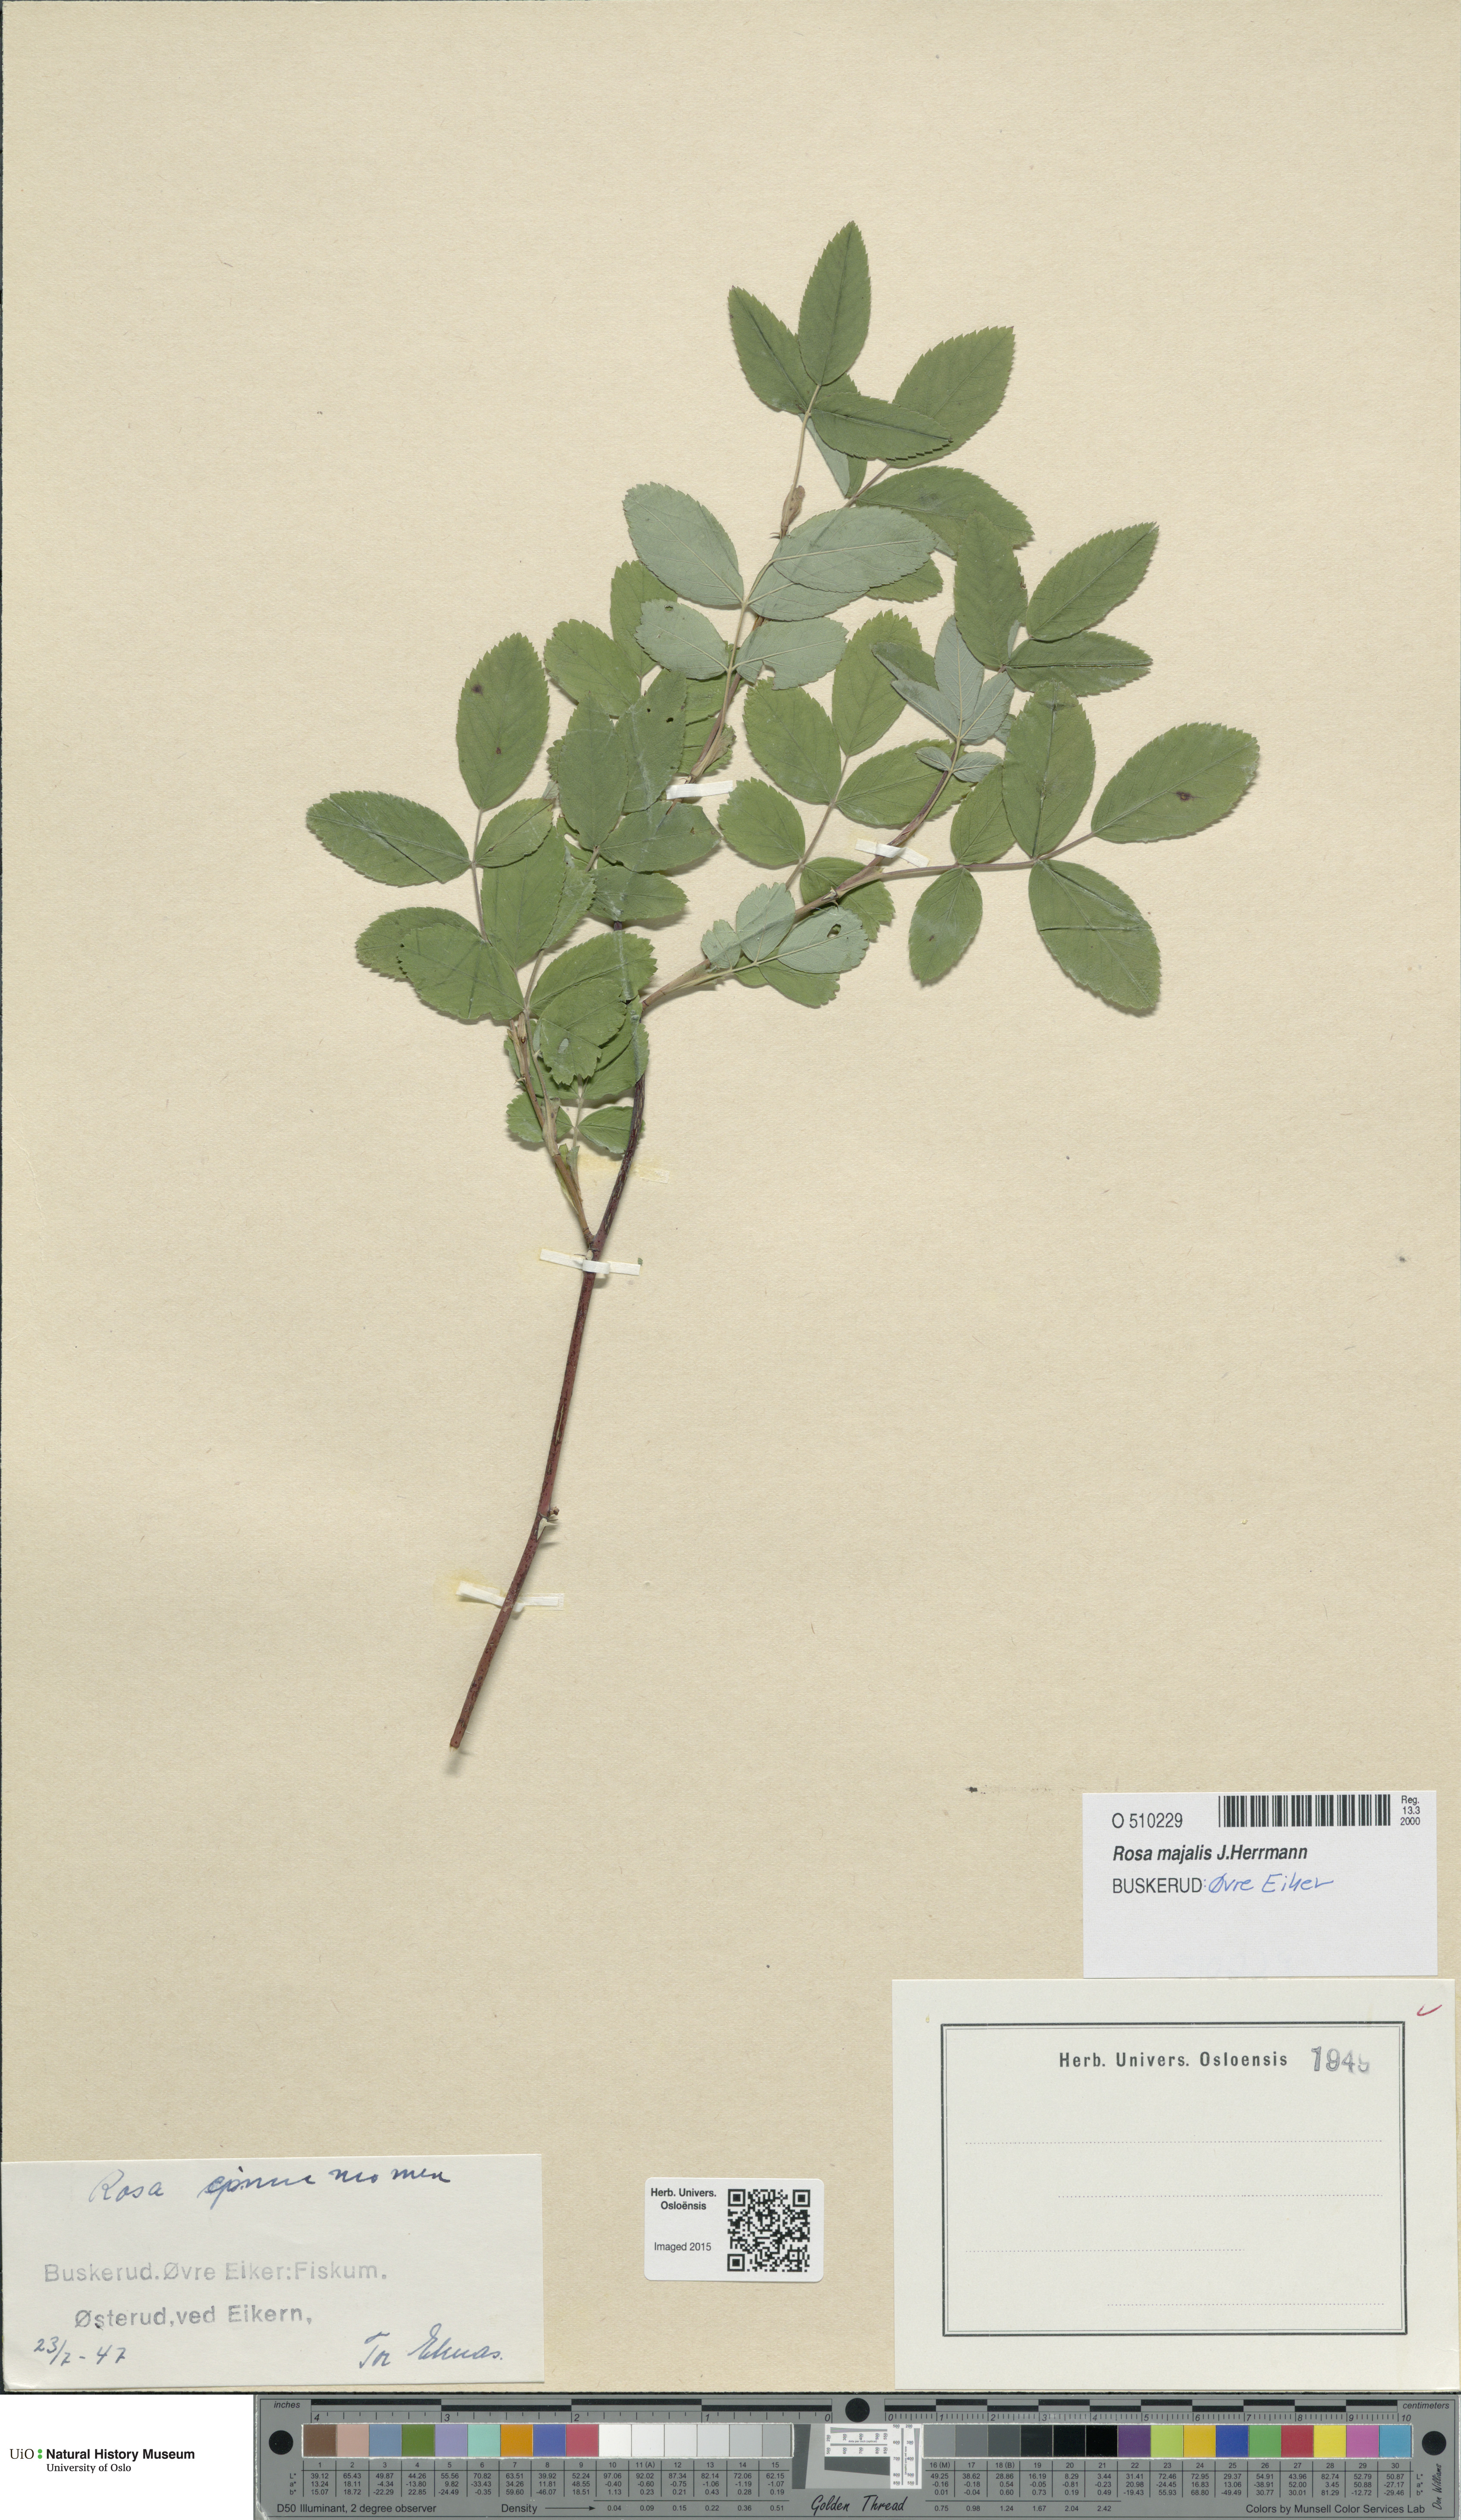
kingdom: Plantae
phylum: Tracheophyta
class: Magnoliopsida
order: Rosales
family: Rosaceae
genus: Rosa
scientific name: Rosa pendulina
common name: Alpine rose
